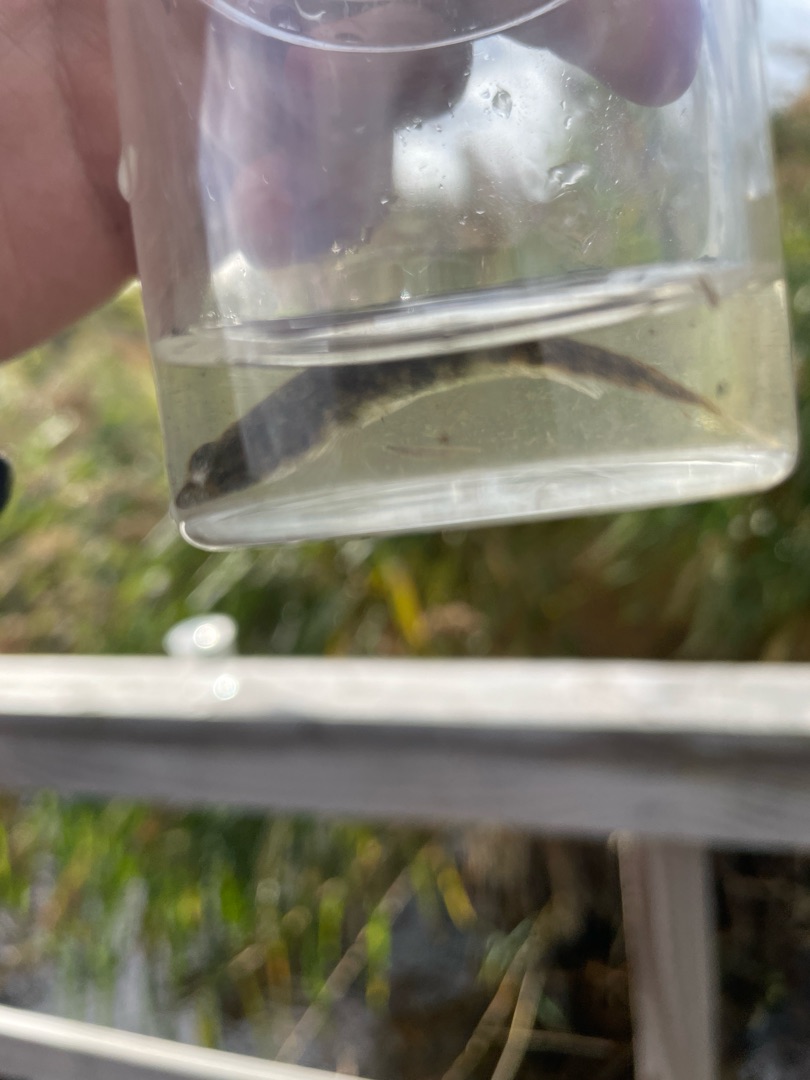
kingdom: Animalia
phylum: Chordata
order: Gasterosteiformes
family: Gasterosteidae
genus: Pungitius
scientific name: Pungitius pungitius
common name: Nipigget hundestejle
